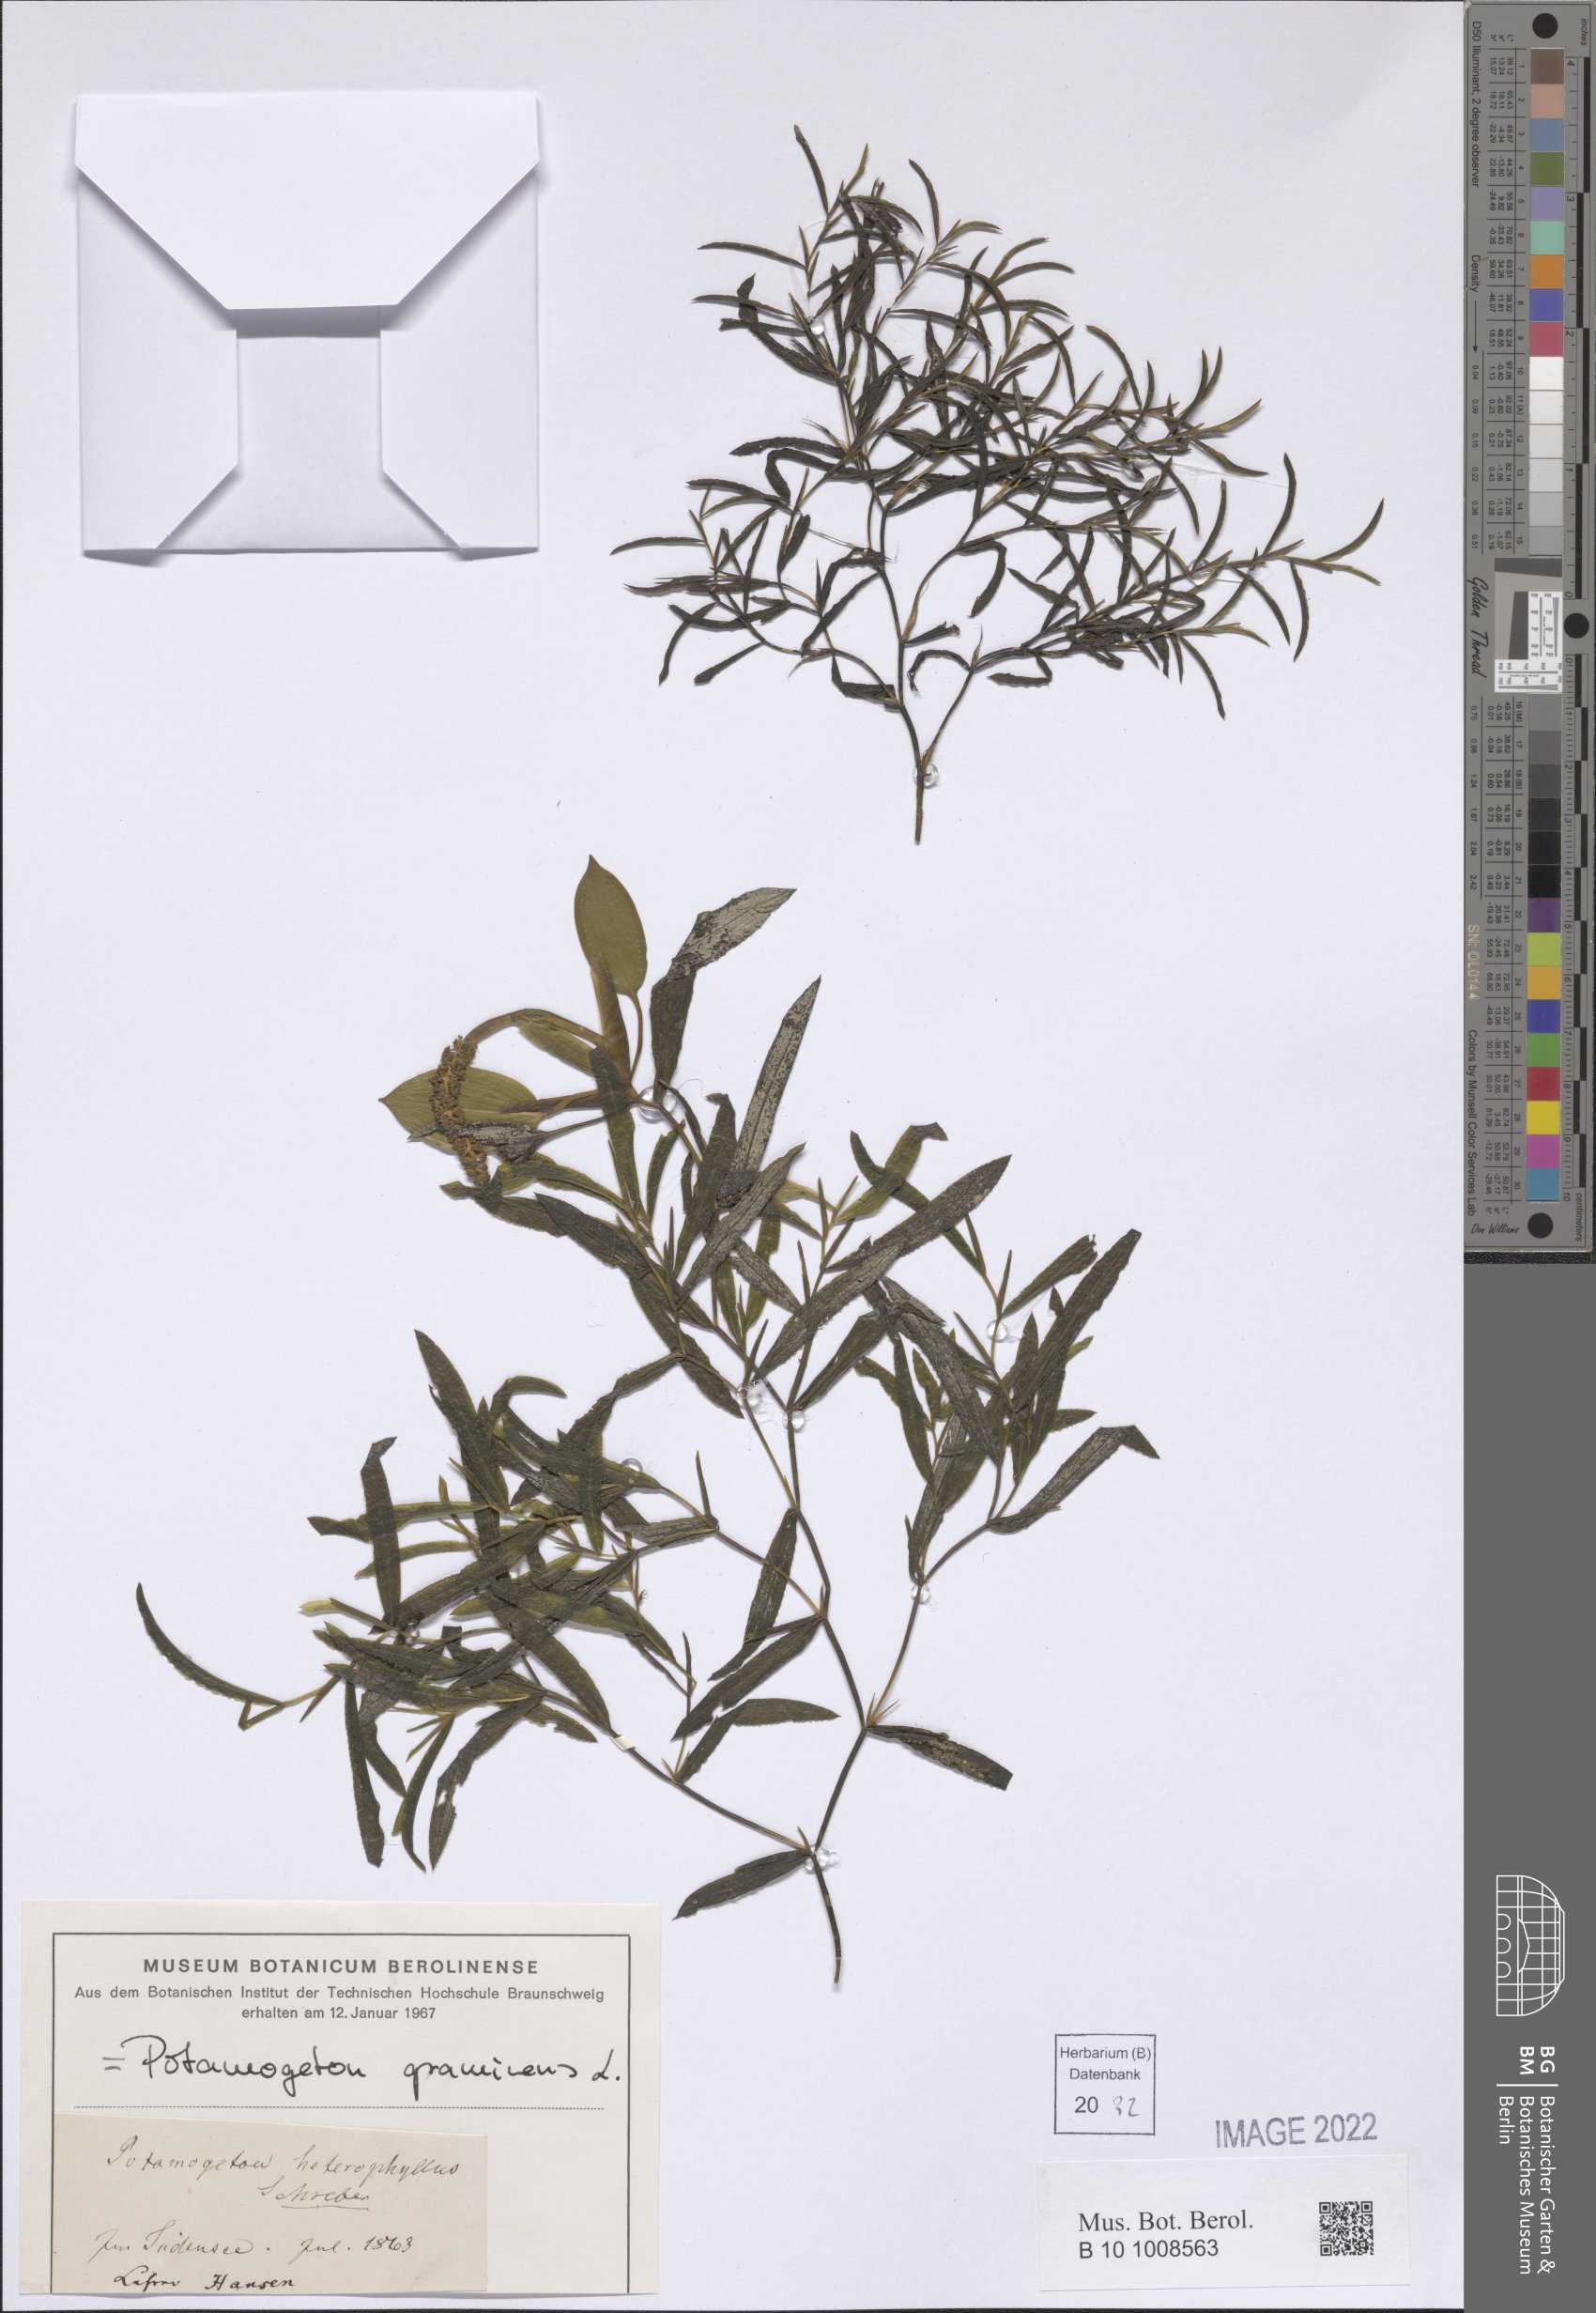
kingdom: Plantae
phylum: Tracheophyta
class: Liliopsida
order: Alismatales
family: Potamogetonaceae
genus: Potamogeton
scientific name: Potamogeton gramineus
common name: Various-leaved pondweed
